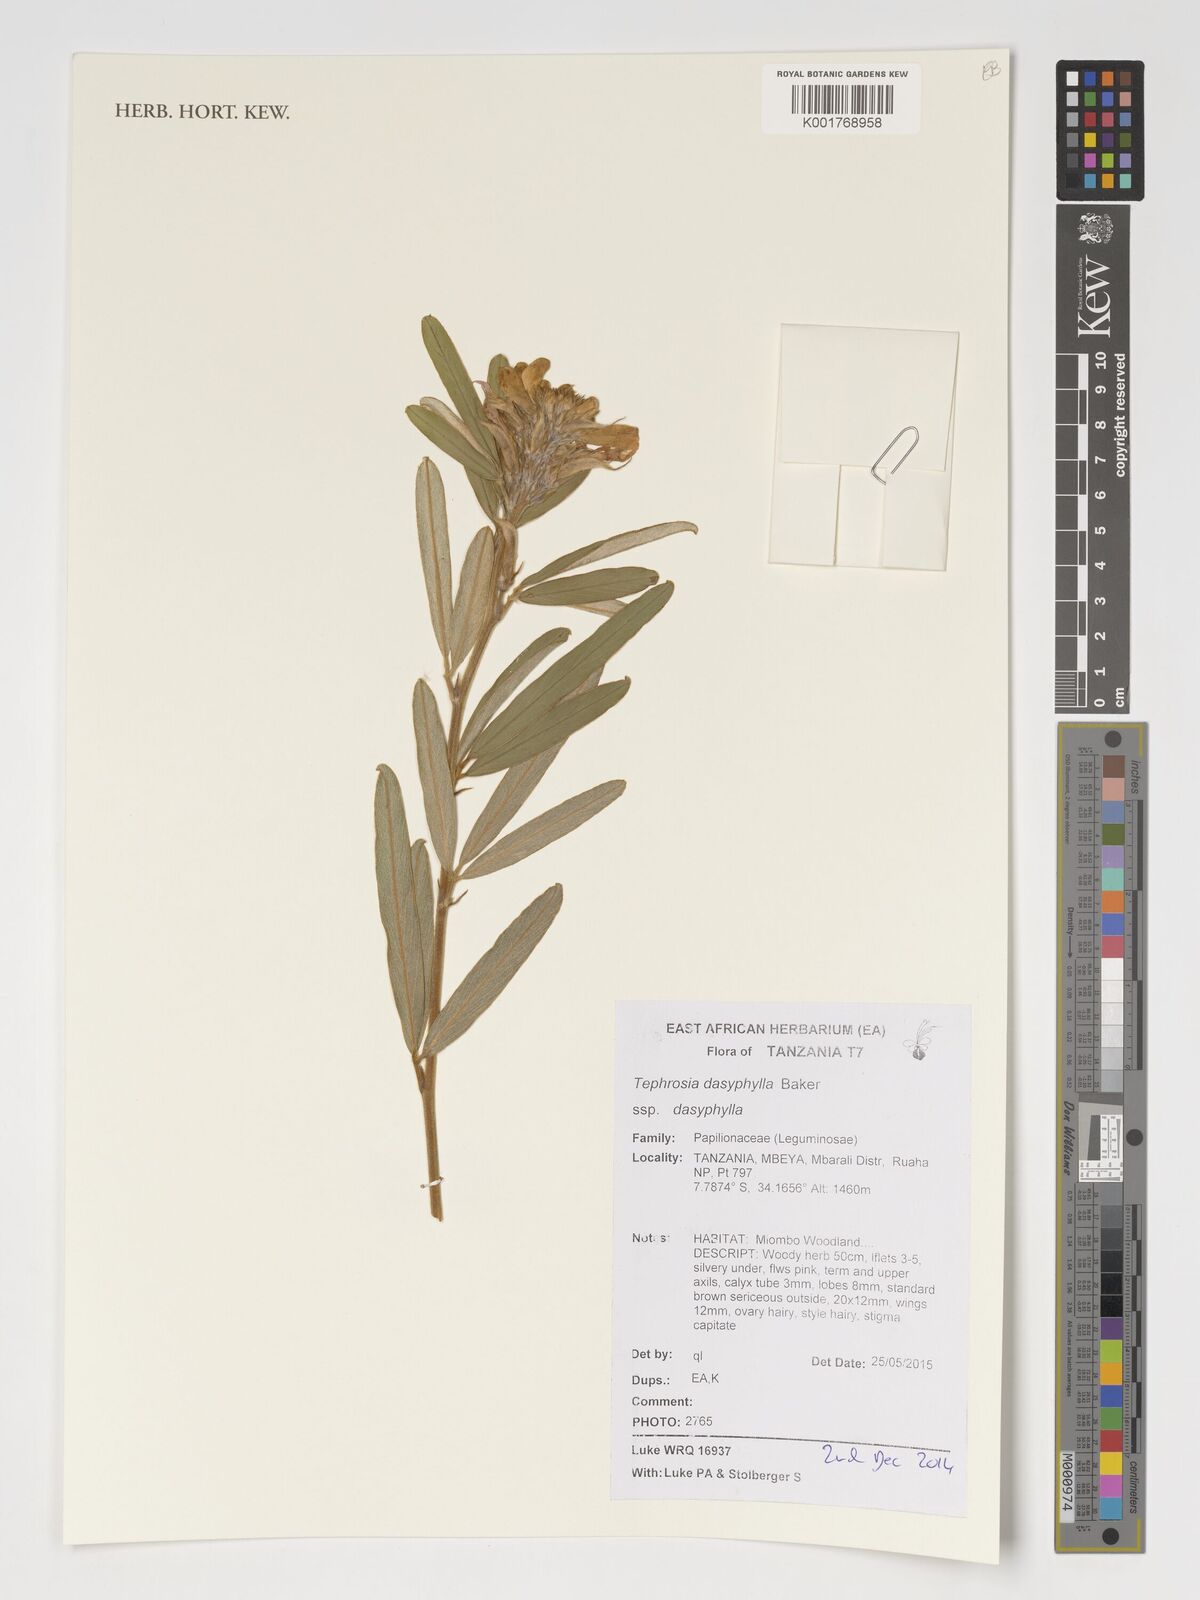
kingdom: Plantae
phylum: Tracheophyta
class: Magnoliopsida
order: Fabales
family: Fabaceae
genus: Tephrosia
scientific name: Tephrosia dasyphylla
